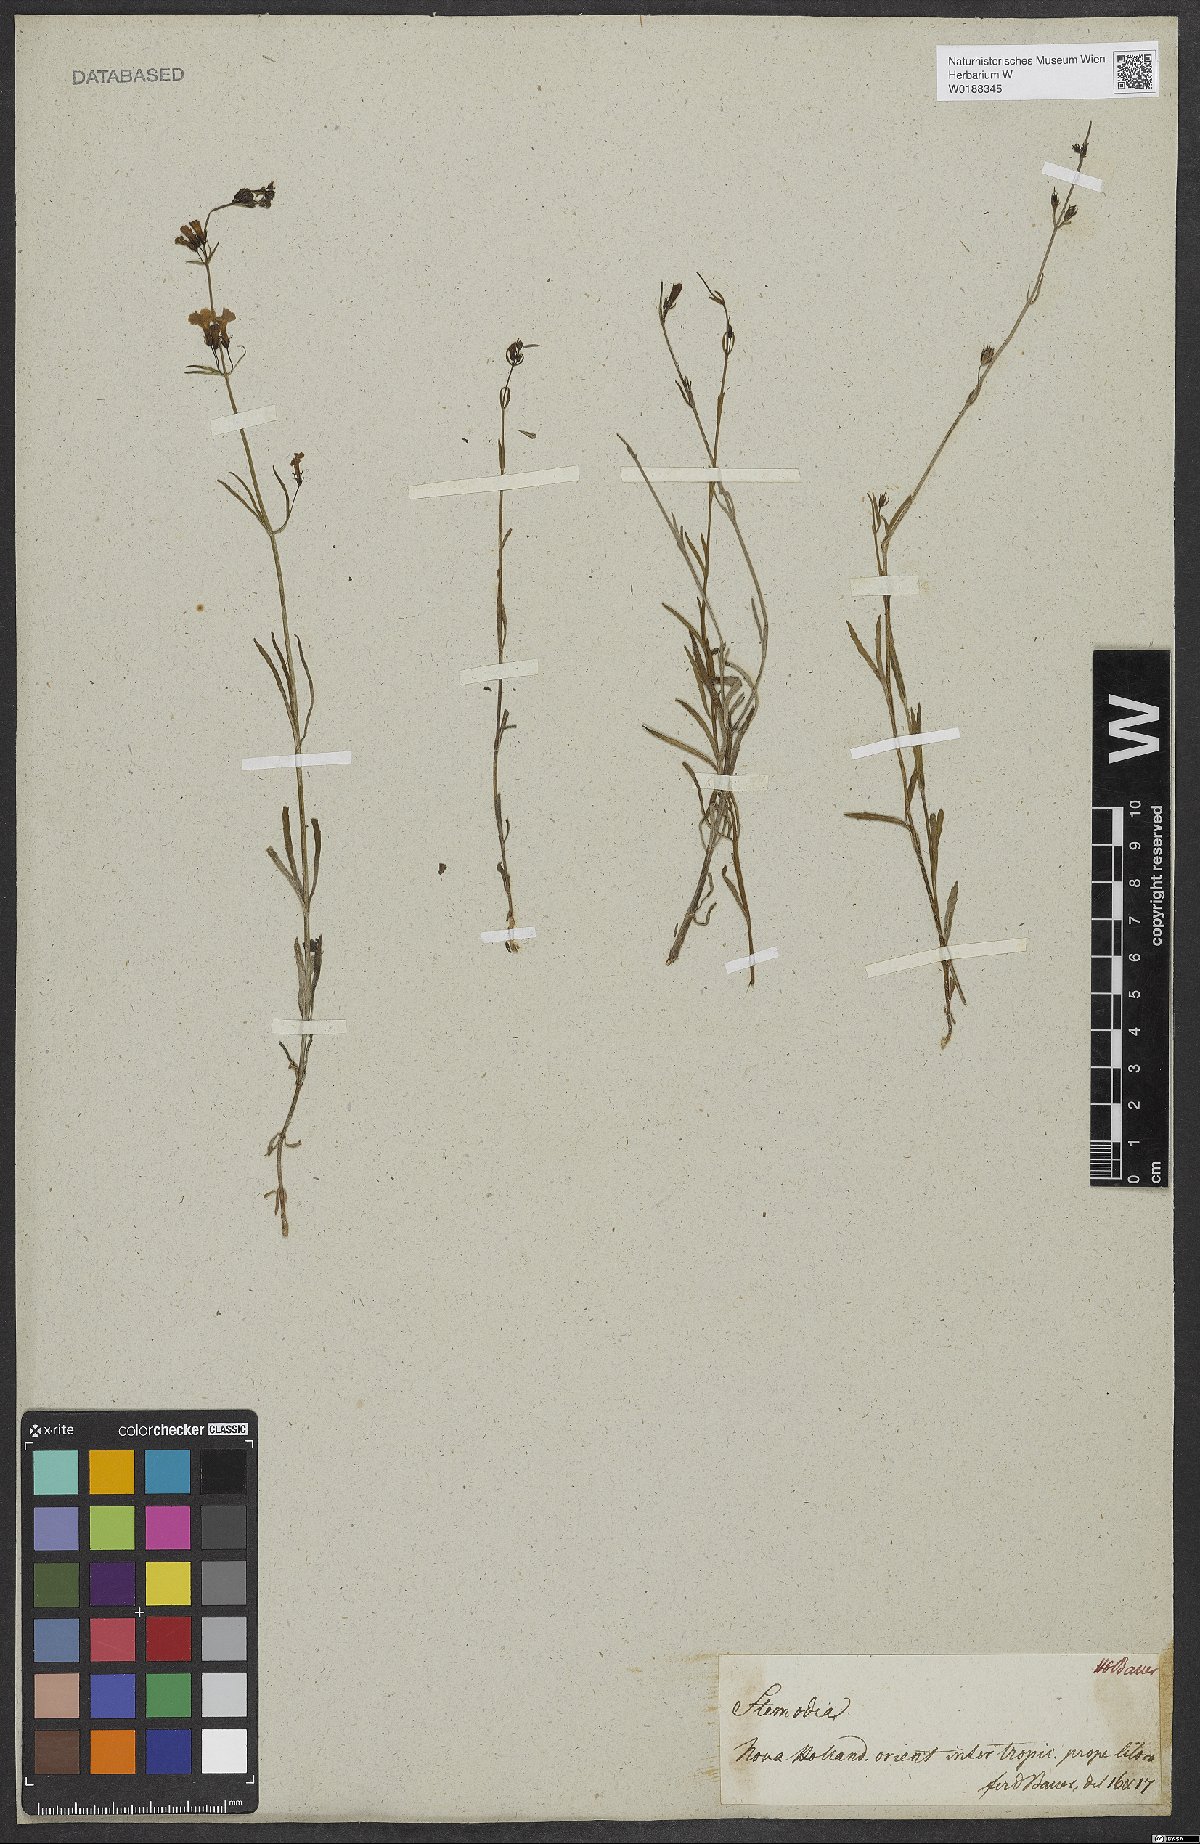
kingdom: Plantae
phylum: Tracheophyta
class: Magnoliopsida
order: Lamiales
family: Plantaginaceae
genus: Stemodia
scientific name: Stemodia
